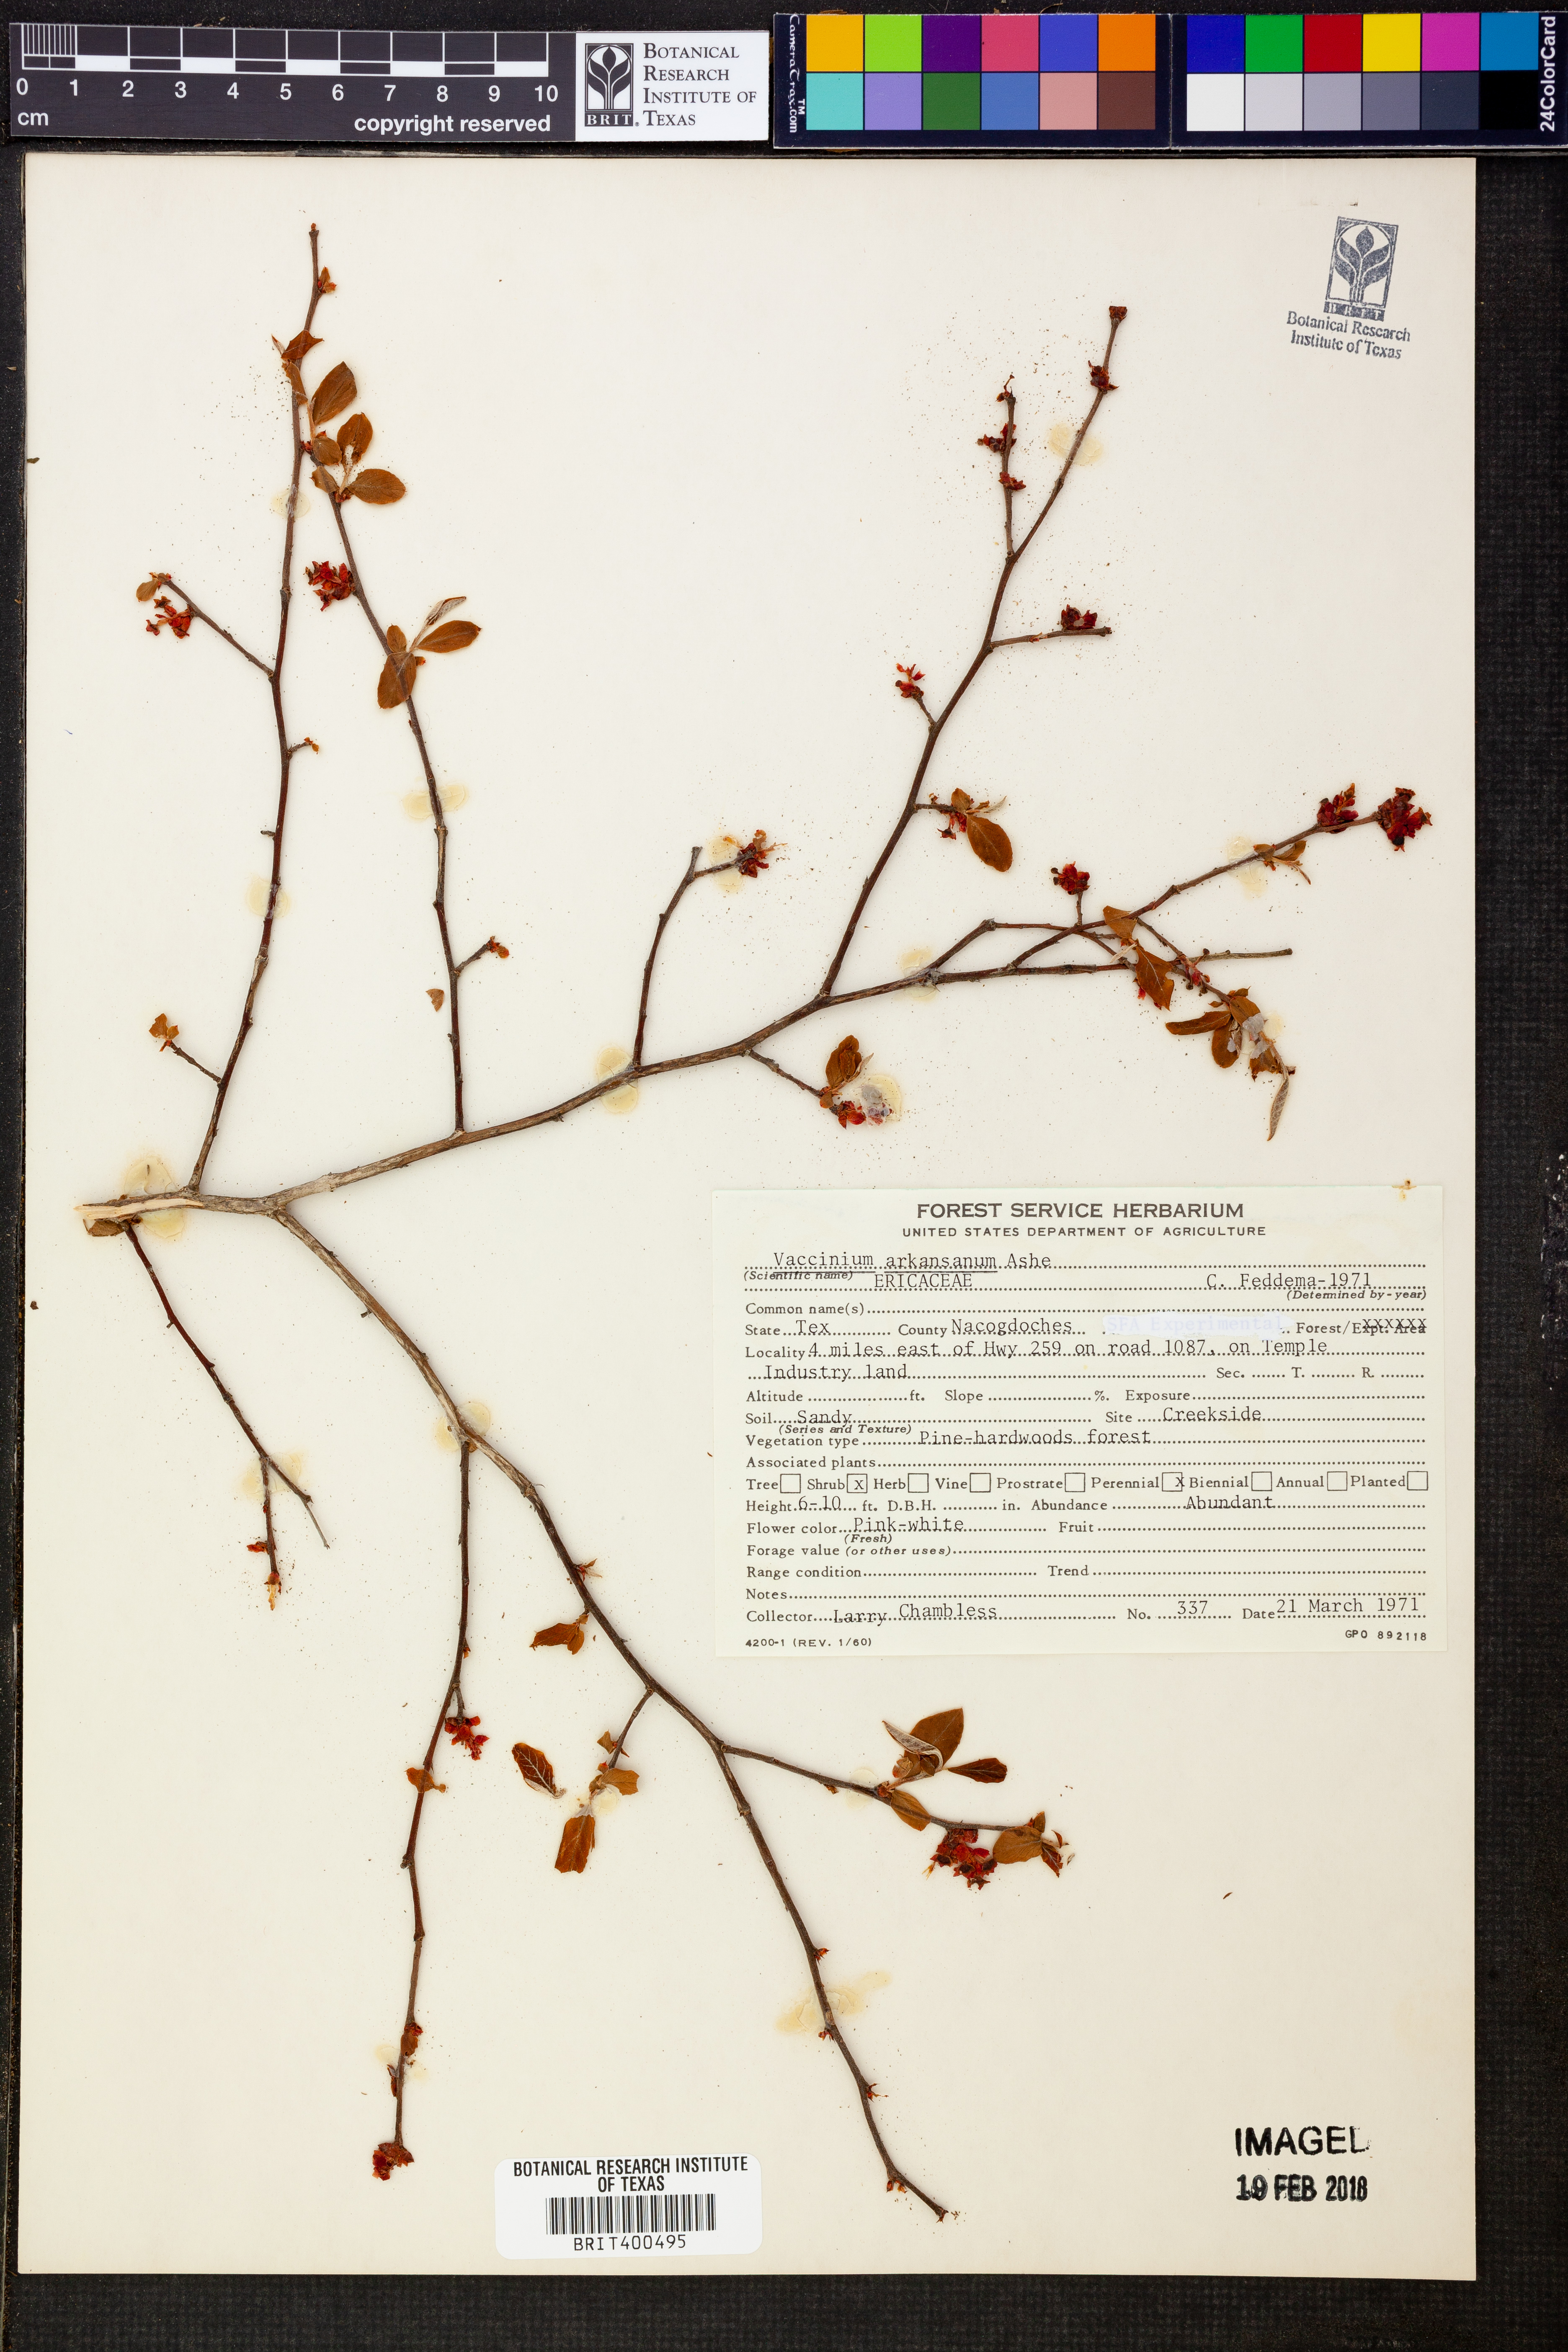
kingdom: Plantae
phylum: Tracheophyta
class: Magnoliopsida
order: Ericales
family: Ericaceae
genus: Vaccinium
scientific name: Vaccinium corymbosum
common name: Blueberry
